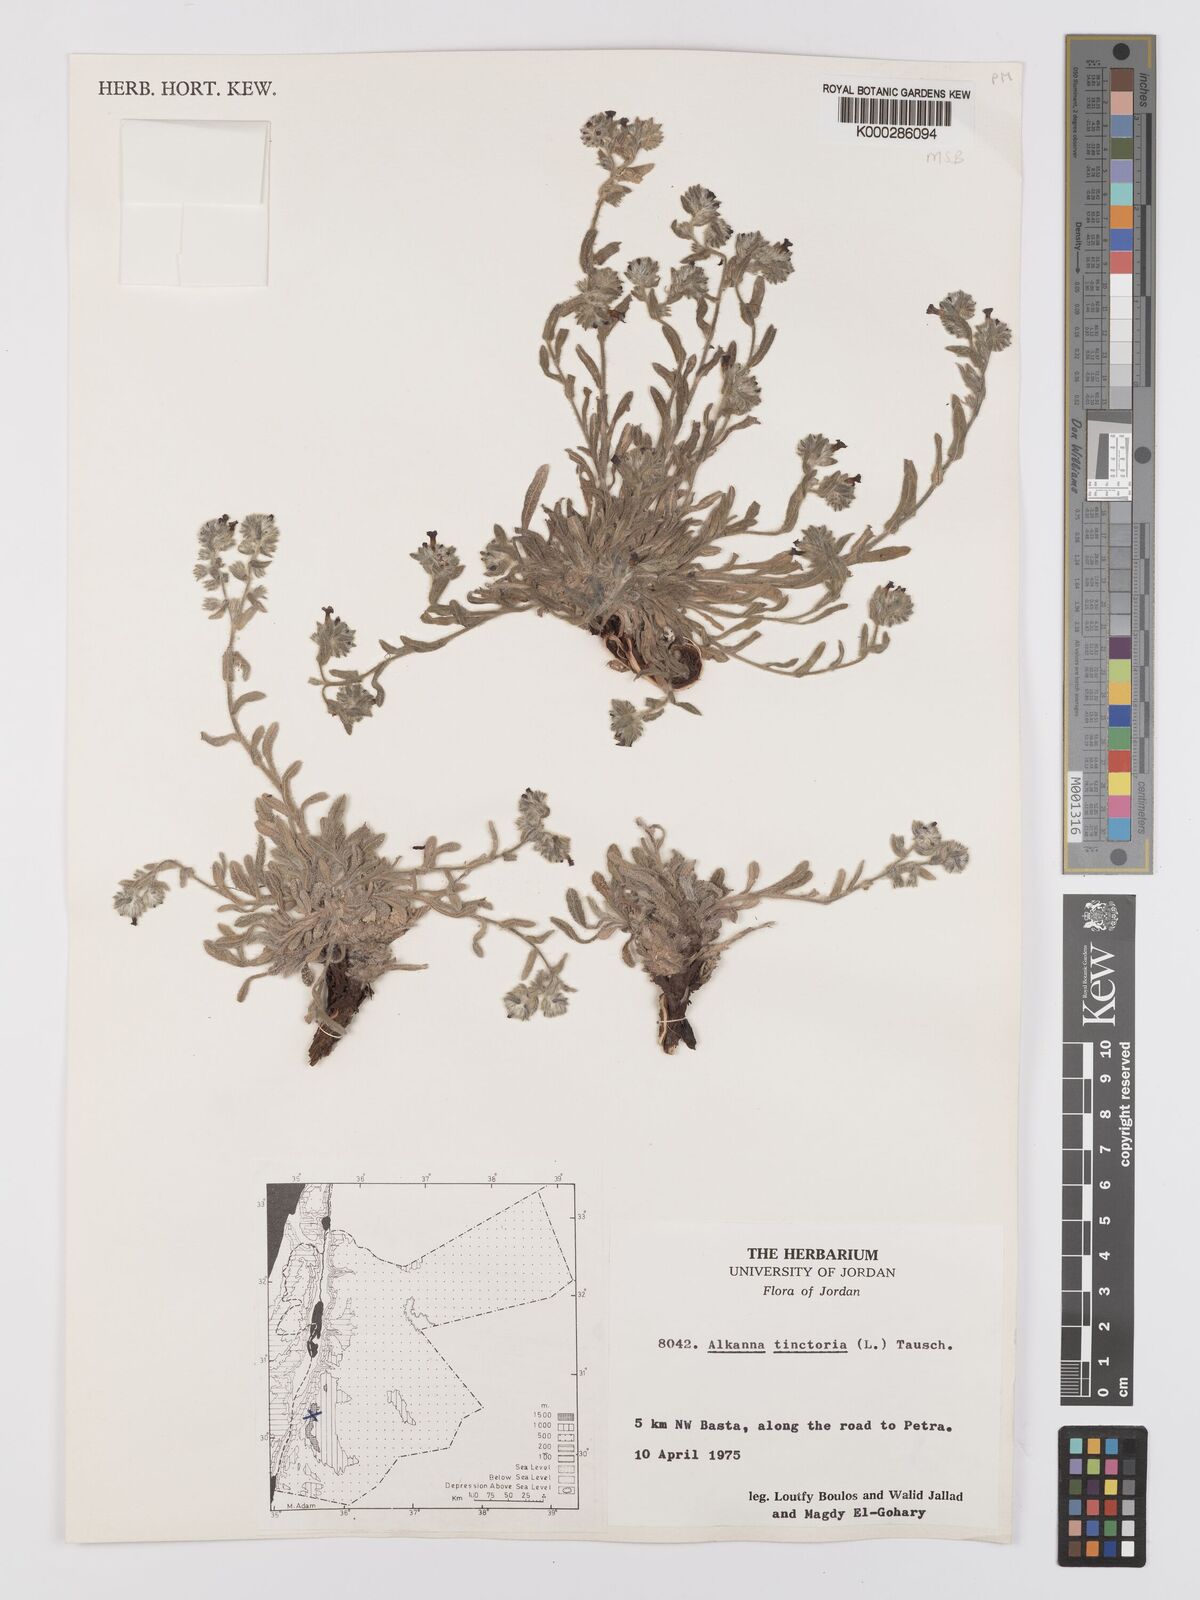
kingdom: Plantae
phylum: Tracheophyta
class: Magnoliopsida
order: Boraginales
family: Boraginaceae
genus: Alkanna
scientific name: Alkanna tinctoria
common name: Dyer's-alkanet
